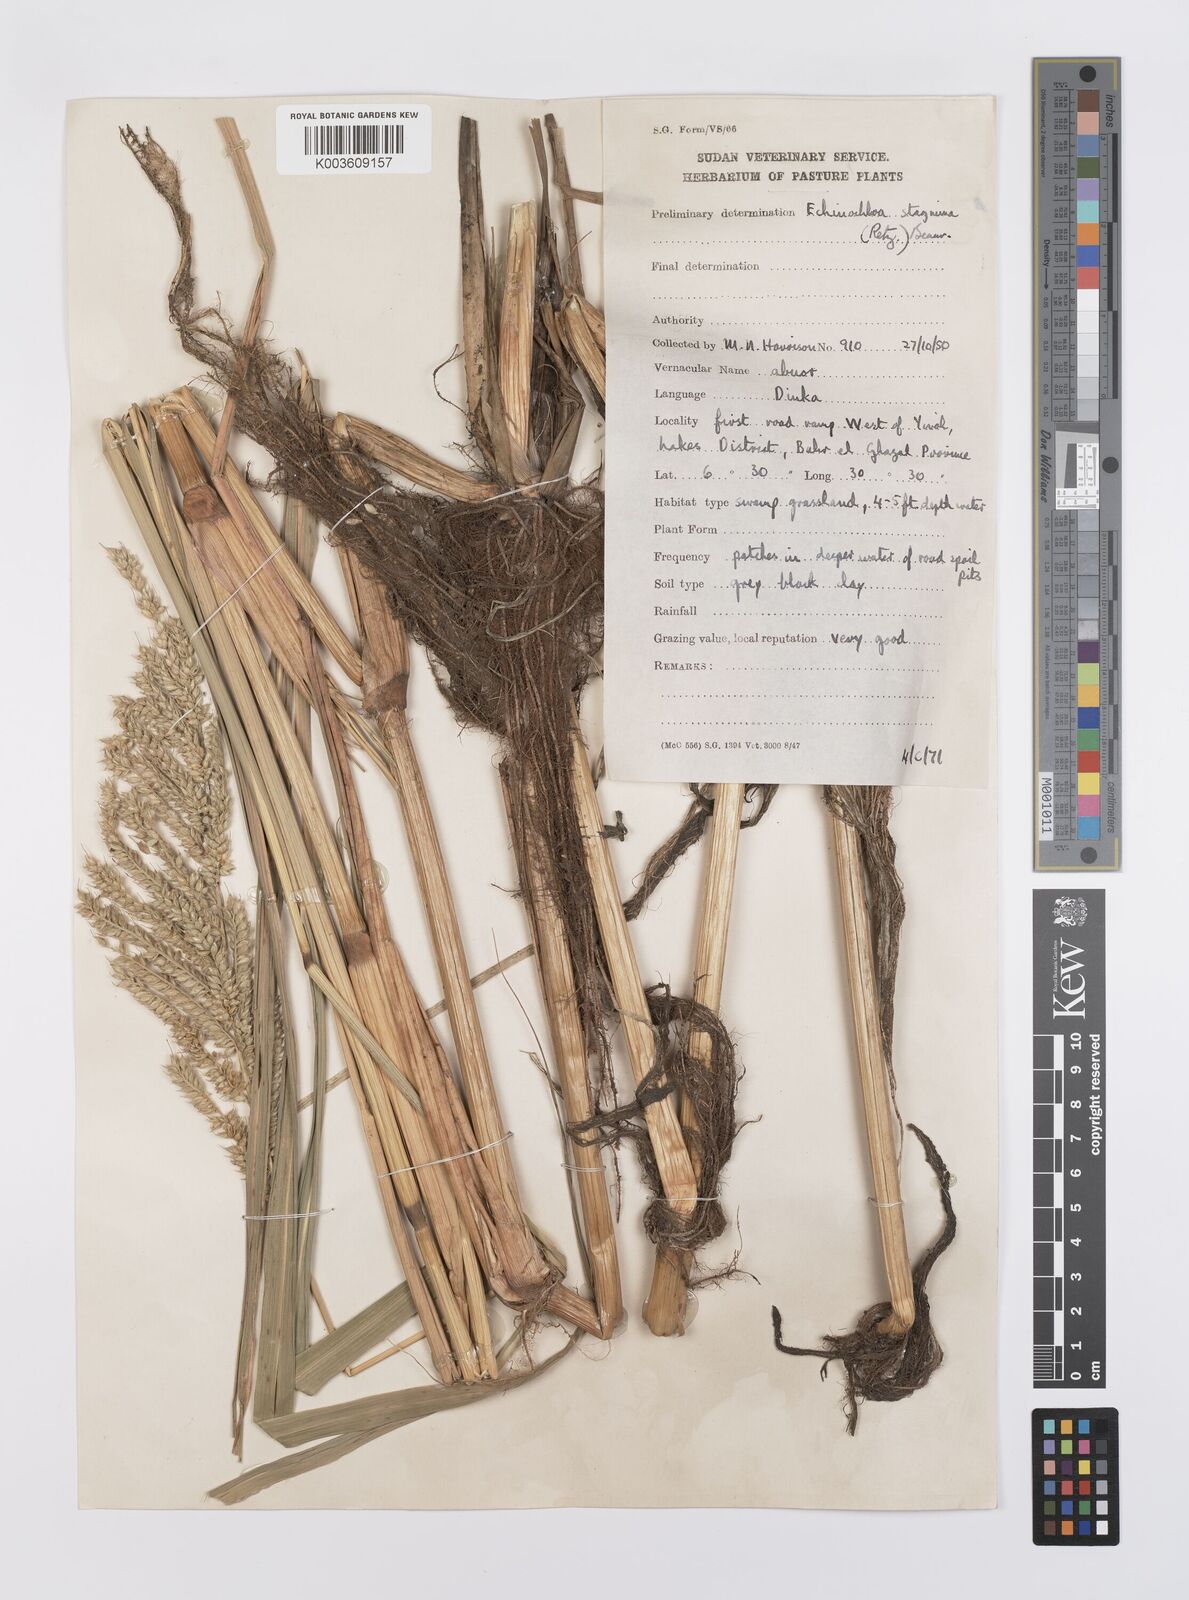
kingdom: Plantae
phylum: Tracheophyta
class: Liliopsida
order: Poales
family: Poaceae
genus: Echinochloa
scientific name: Echinochloa stagnina
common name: Burgu grass
